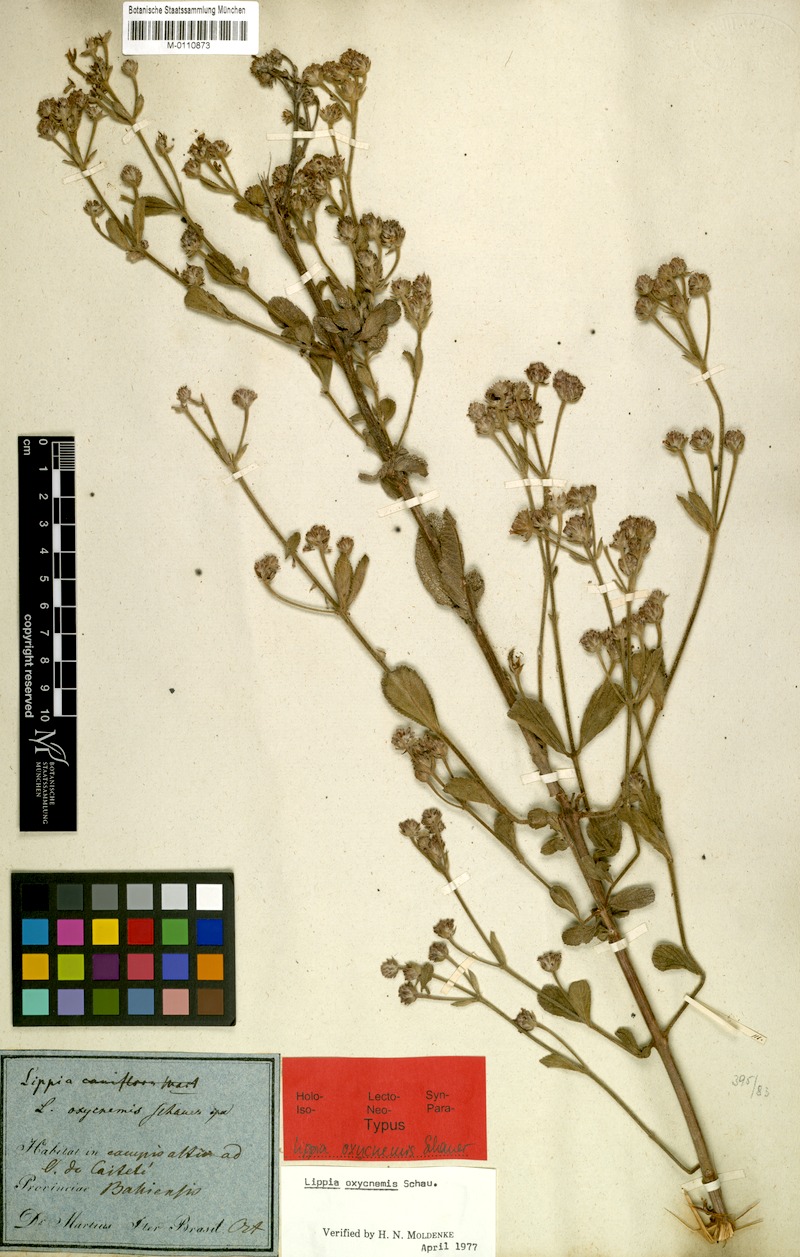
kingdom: Plantae
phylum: Tracheophyta
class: Magnoliopsida
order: Lamiales
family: Verbenaceae
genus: Lippia
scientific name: Lippia oxycnemis
